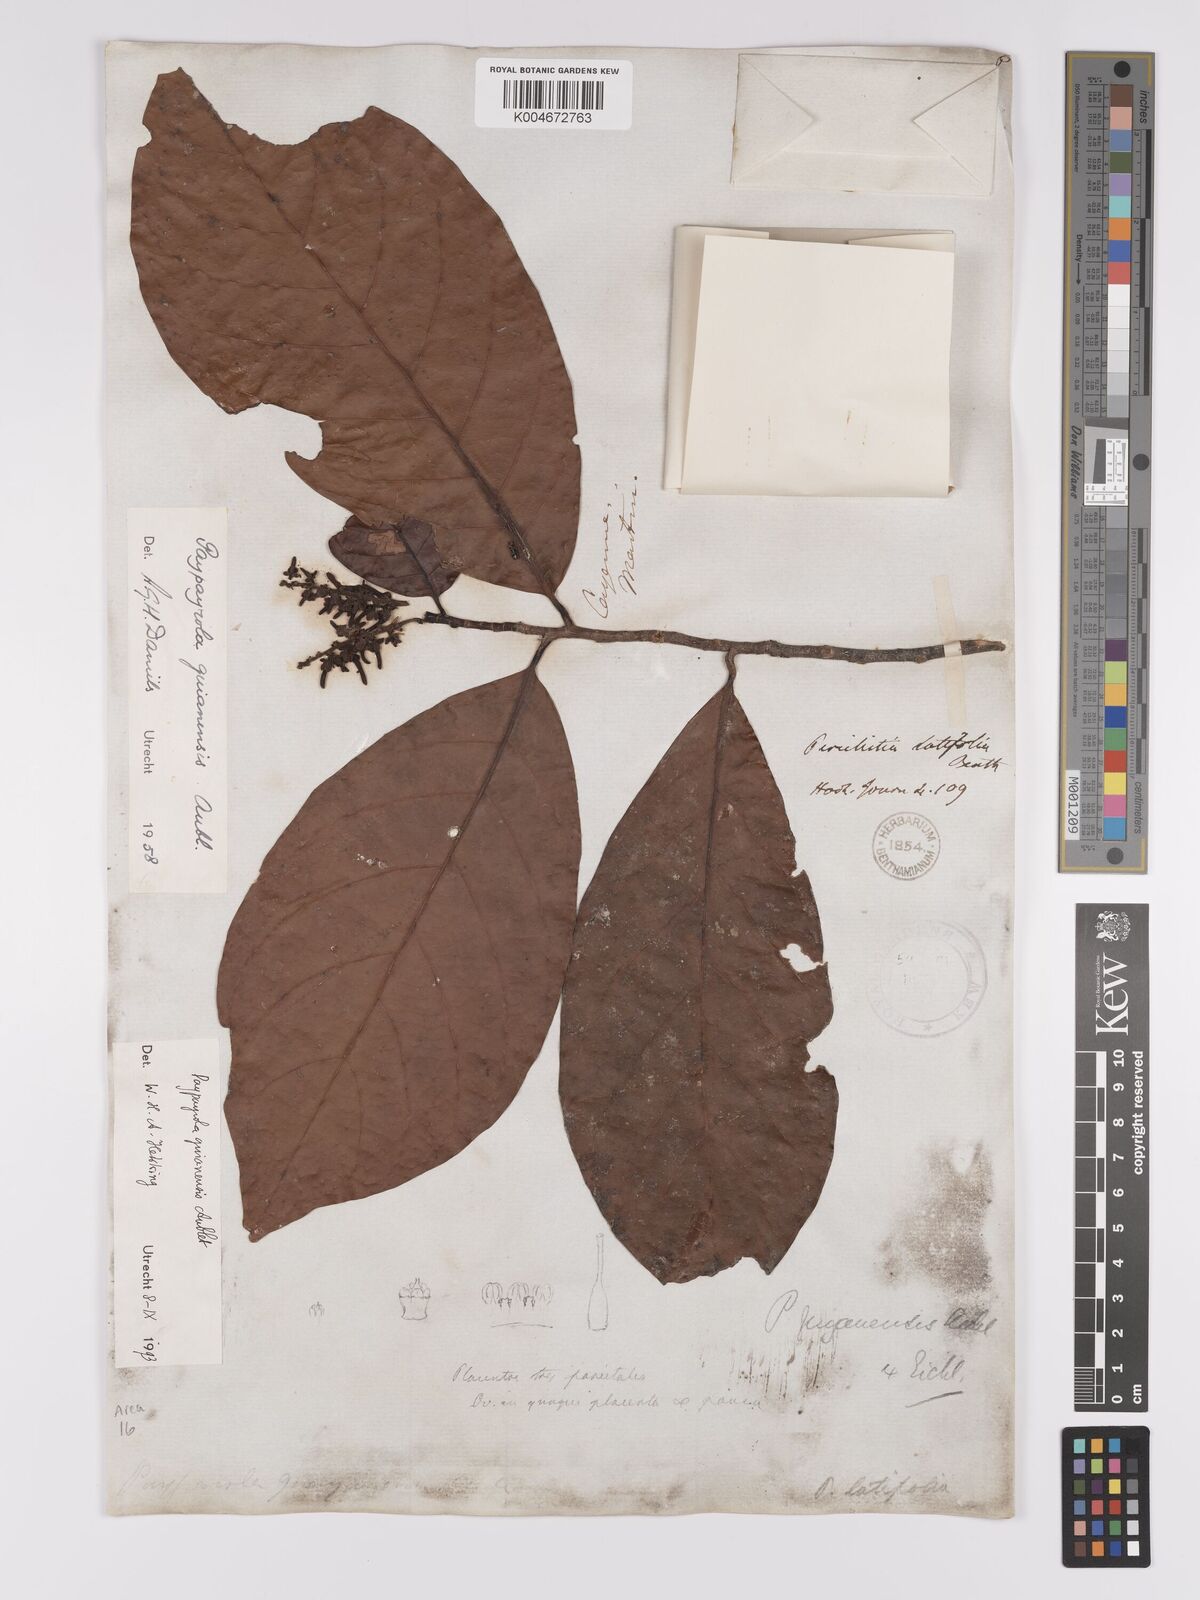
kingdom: Plantae
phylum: Tracheophyta
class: Magnoliopsida
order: Malpighiales
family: Violaceae
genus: Paypayrola
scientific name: Paypayrola guianensis
